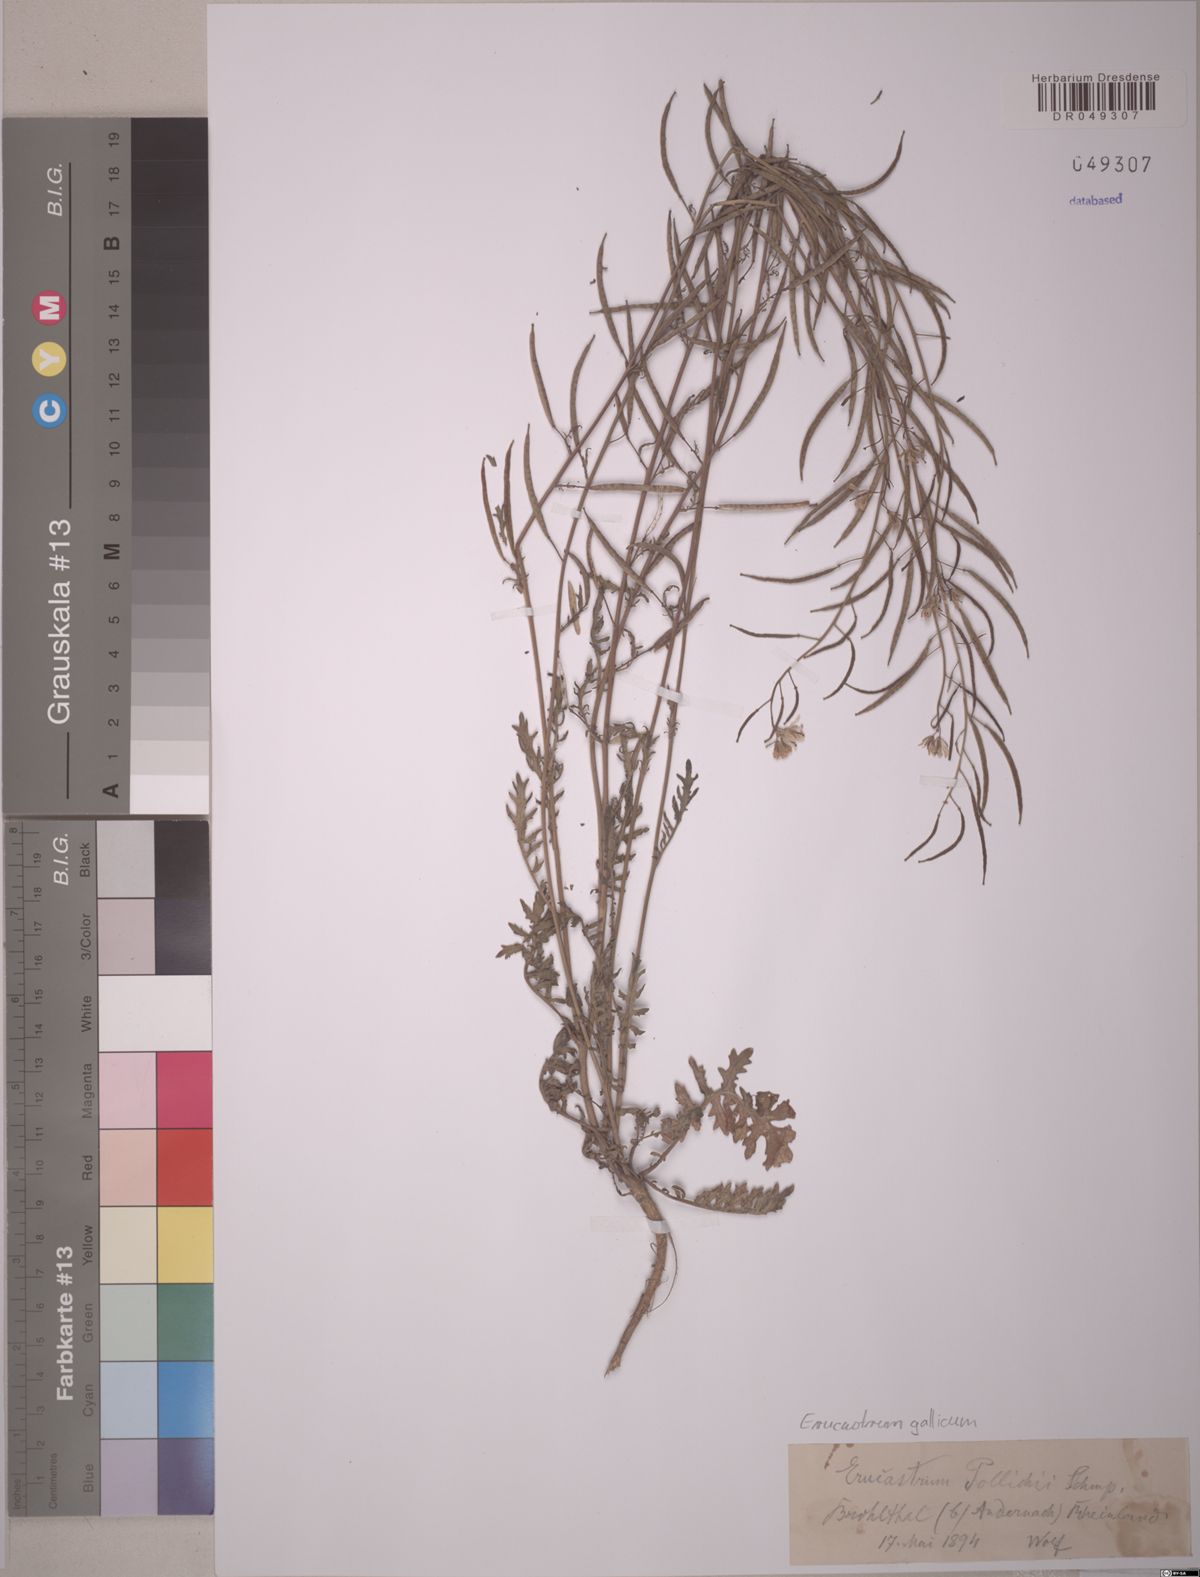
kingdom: Plantae
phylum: Tracheophyta
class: Magnoliopsida
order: Brassicales
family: Brassicaceae
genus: Erucastrum
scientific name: Erucastrum gallicum
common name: Hairy rocket
